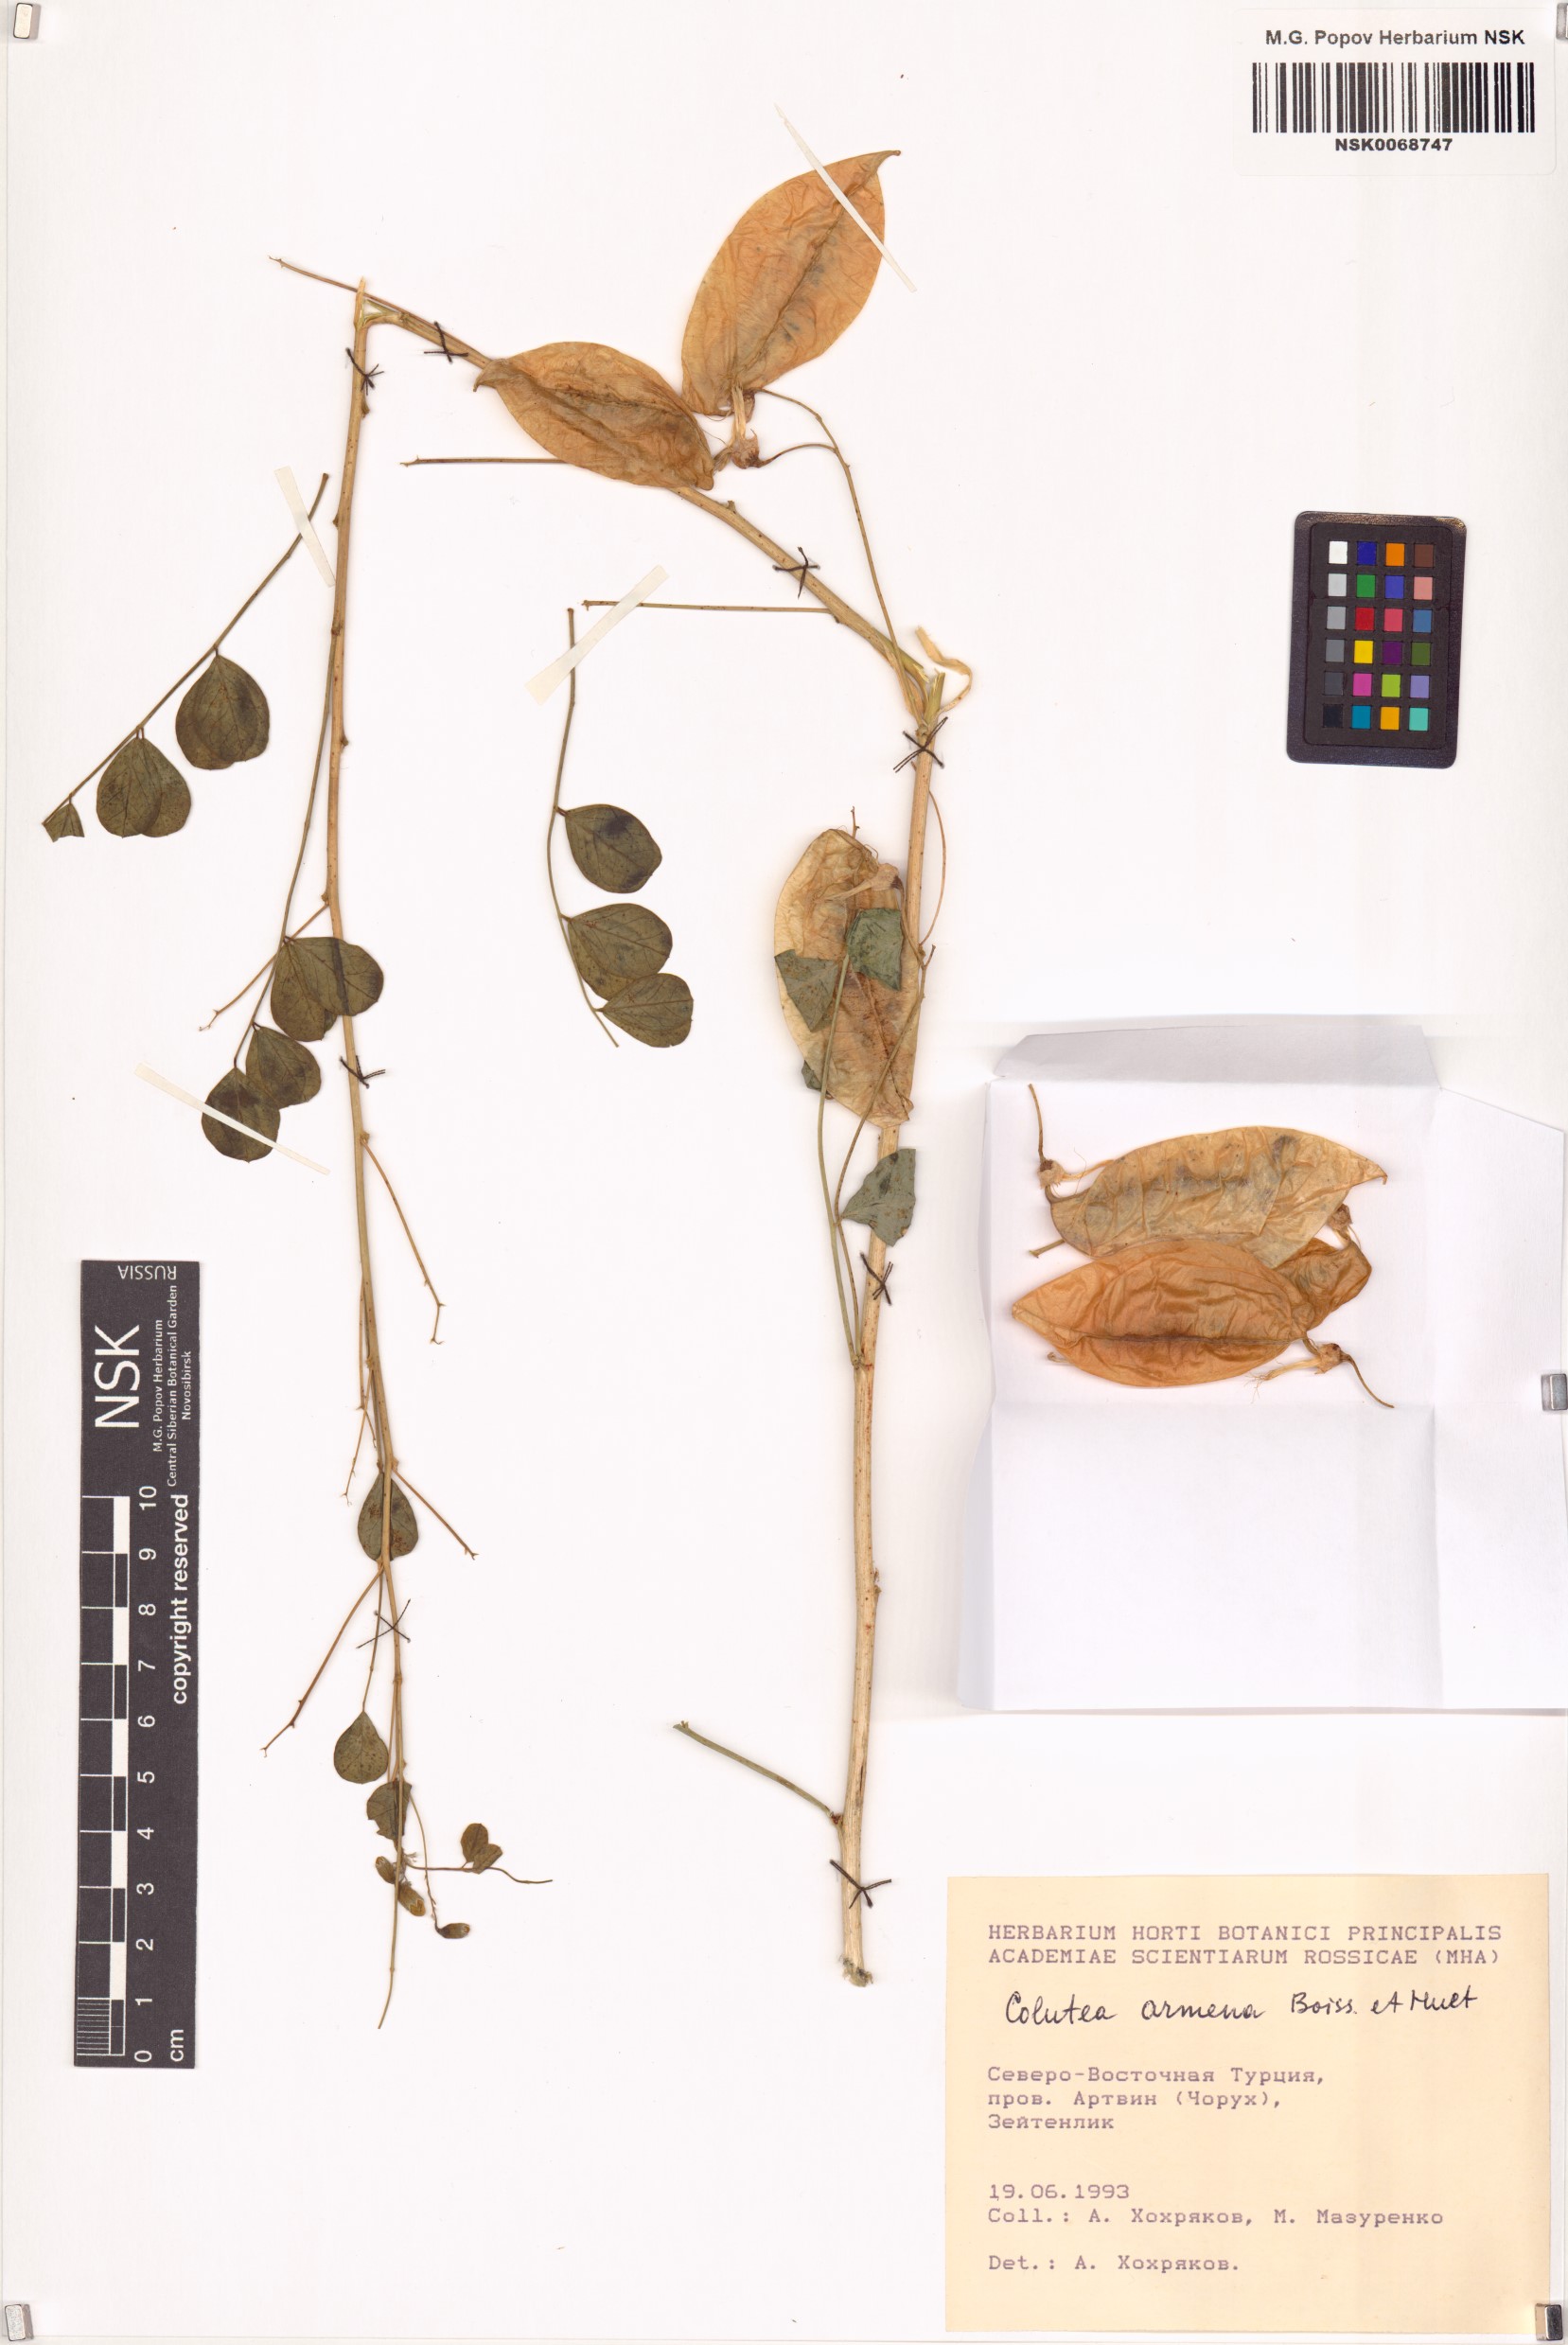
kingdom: Plantae
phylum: Tracheophyta
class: Magnoliopsida
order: Fabales
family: Fabaceae
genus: Colutea
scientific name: Colutea armena
